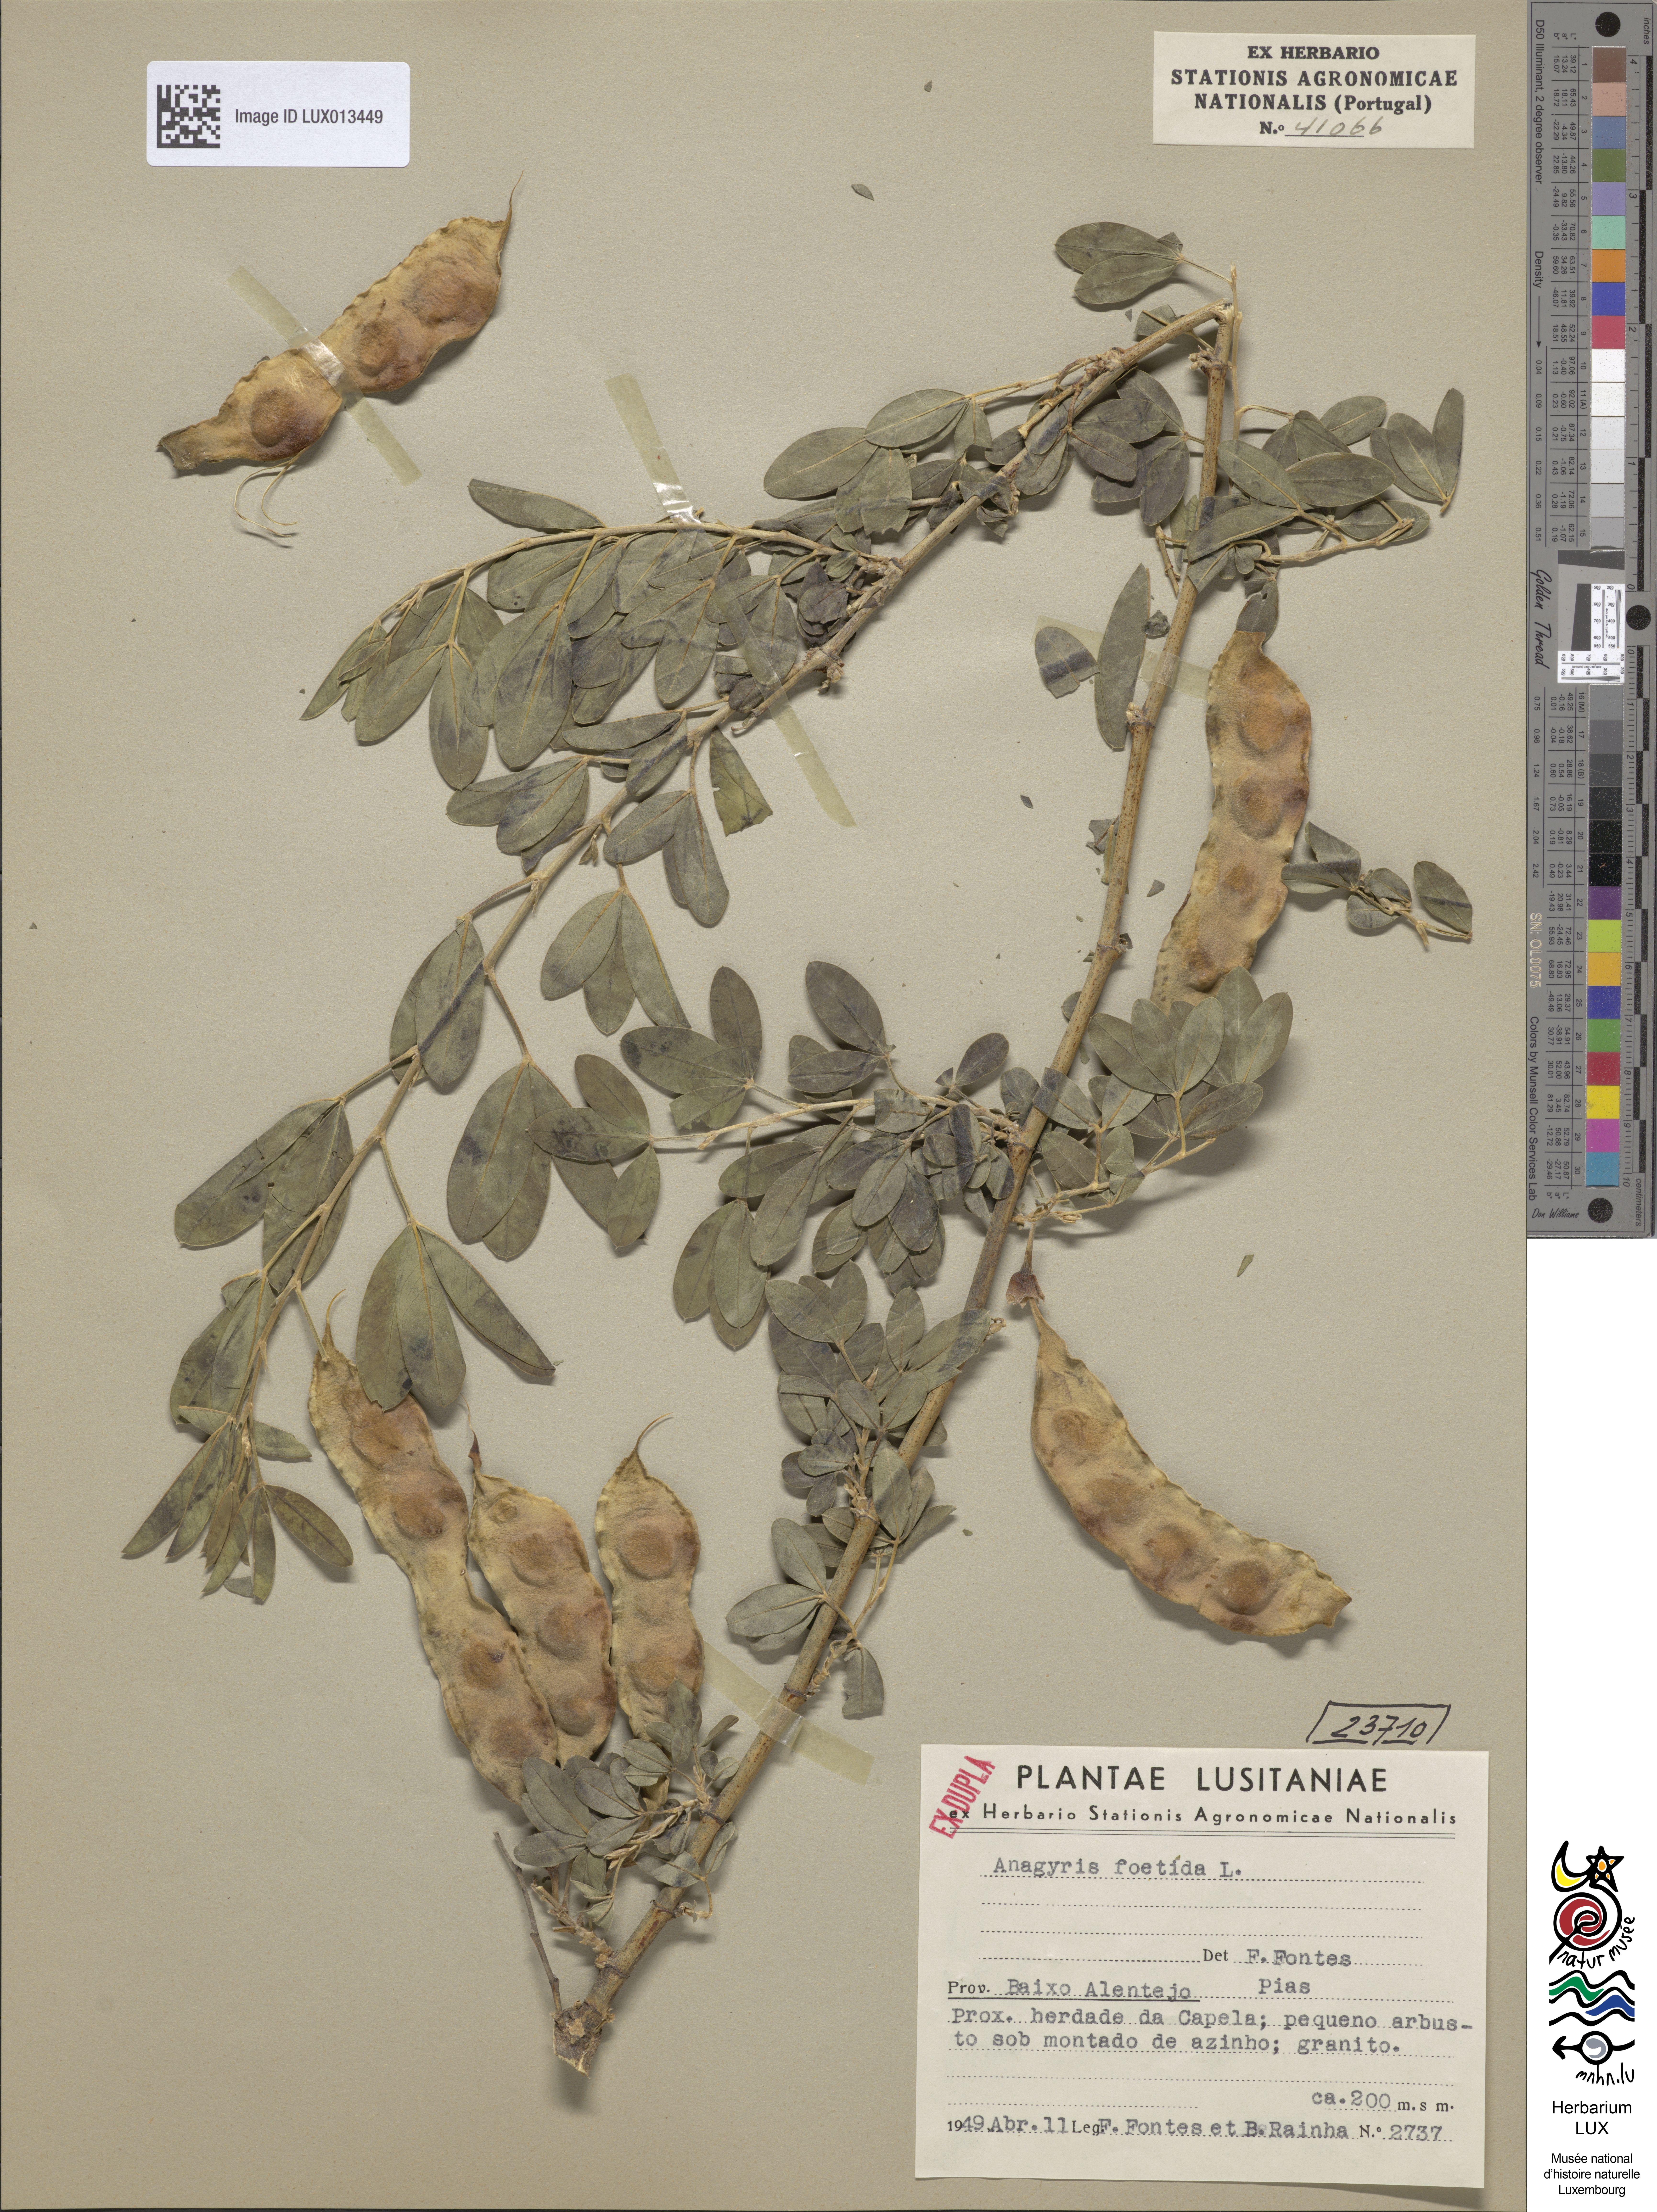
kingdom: Plantae
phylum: Tracheophyta
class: Magnoliopsida
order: Fabales
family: Fabaceae
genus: Anagyris
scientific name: Anagyris foetida
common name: Stinking bean trefoil
